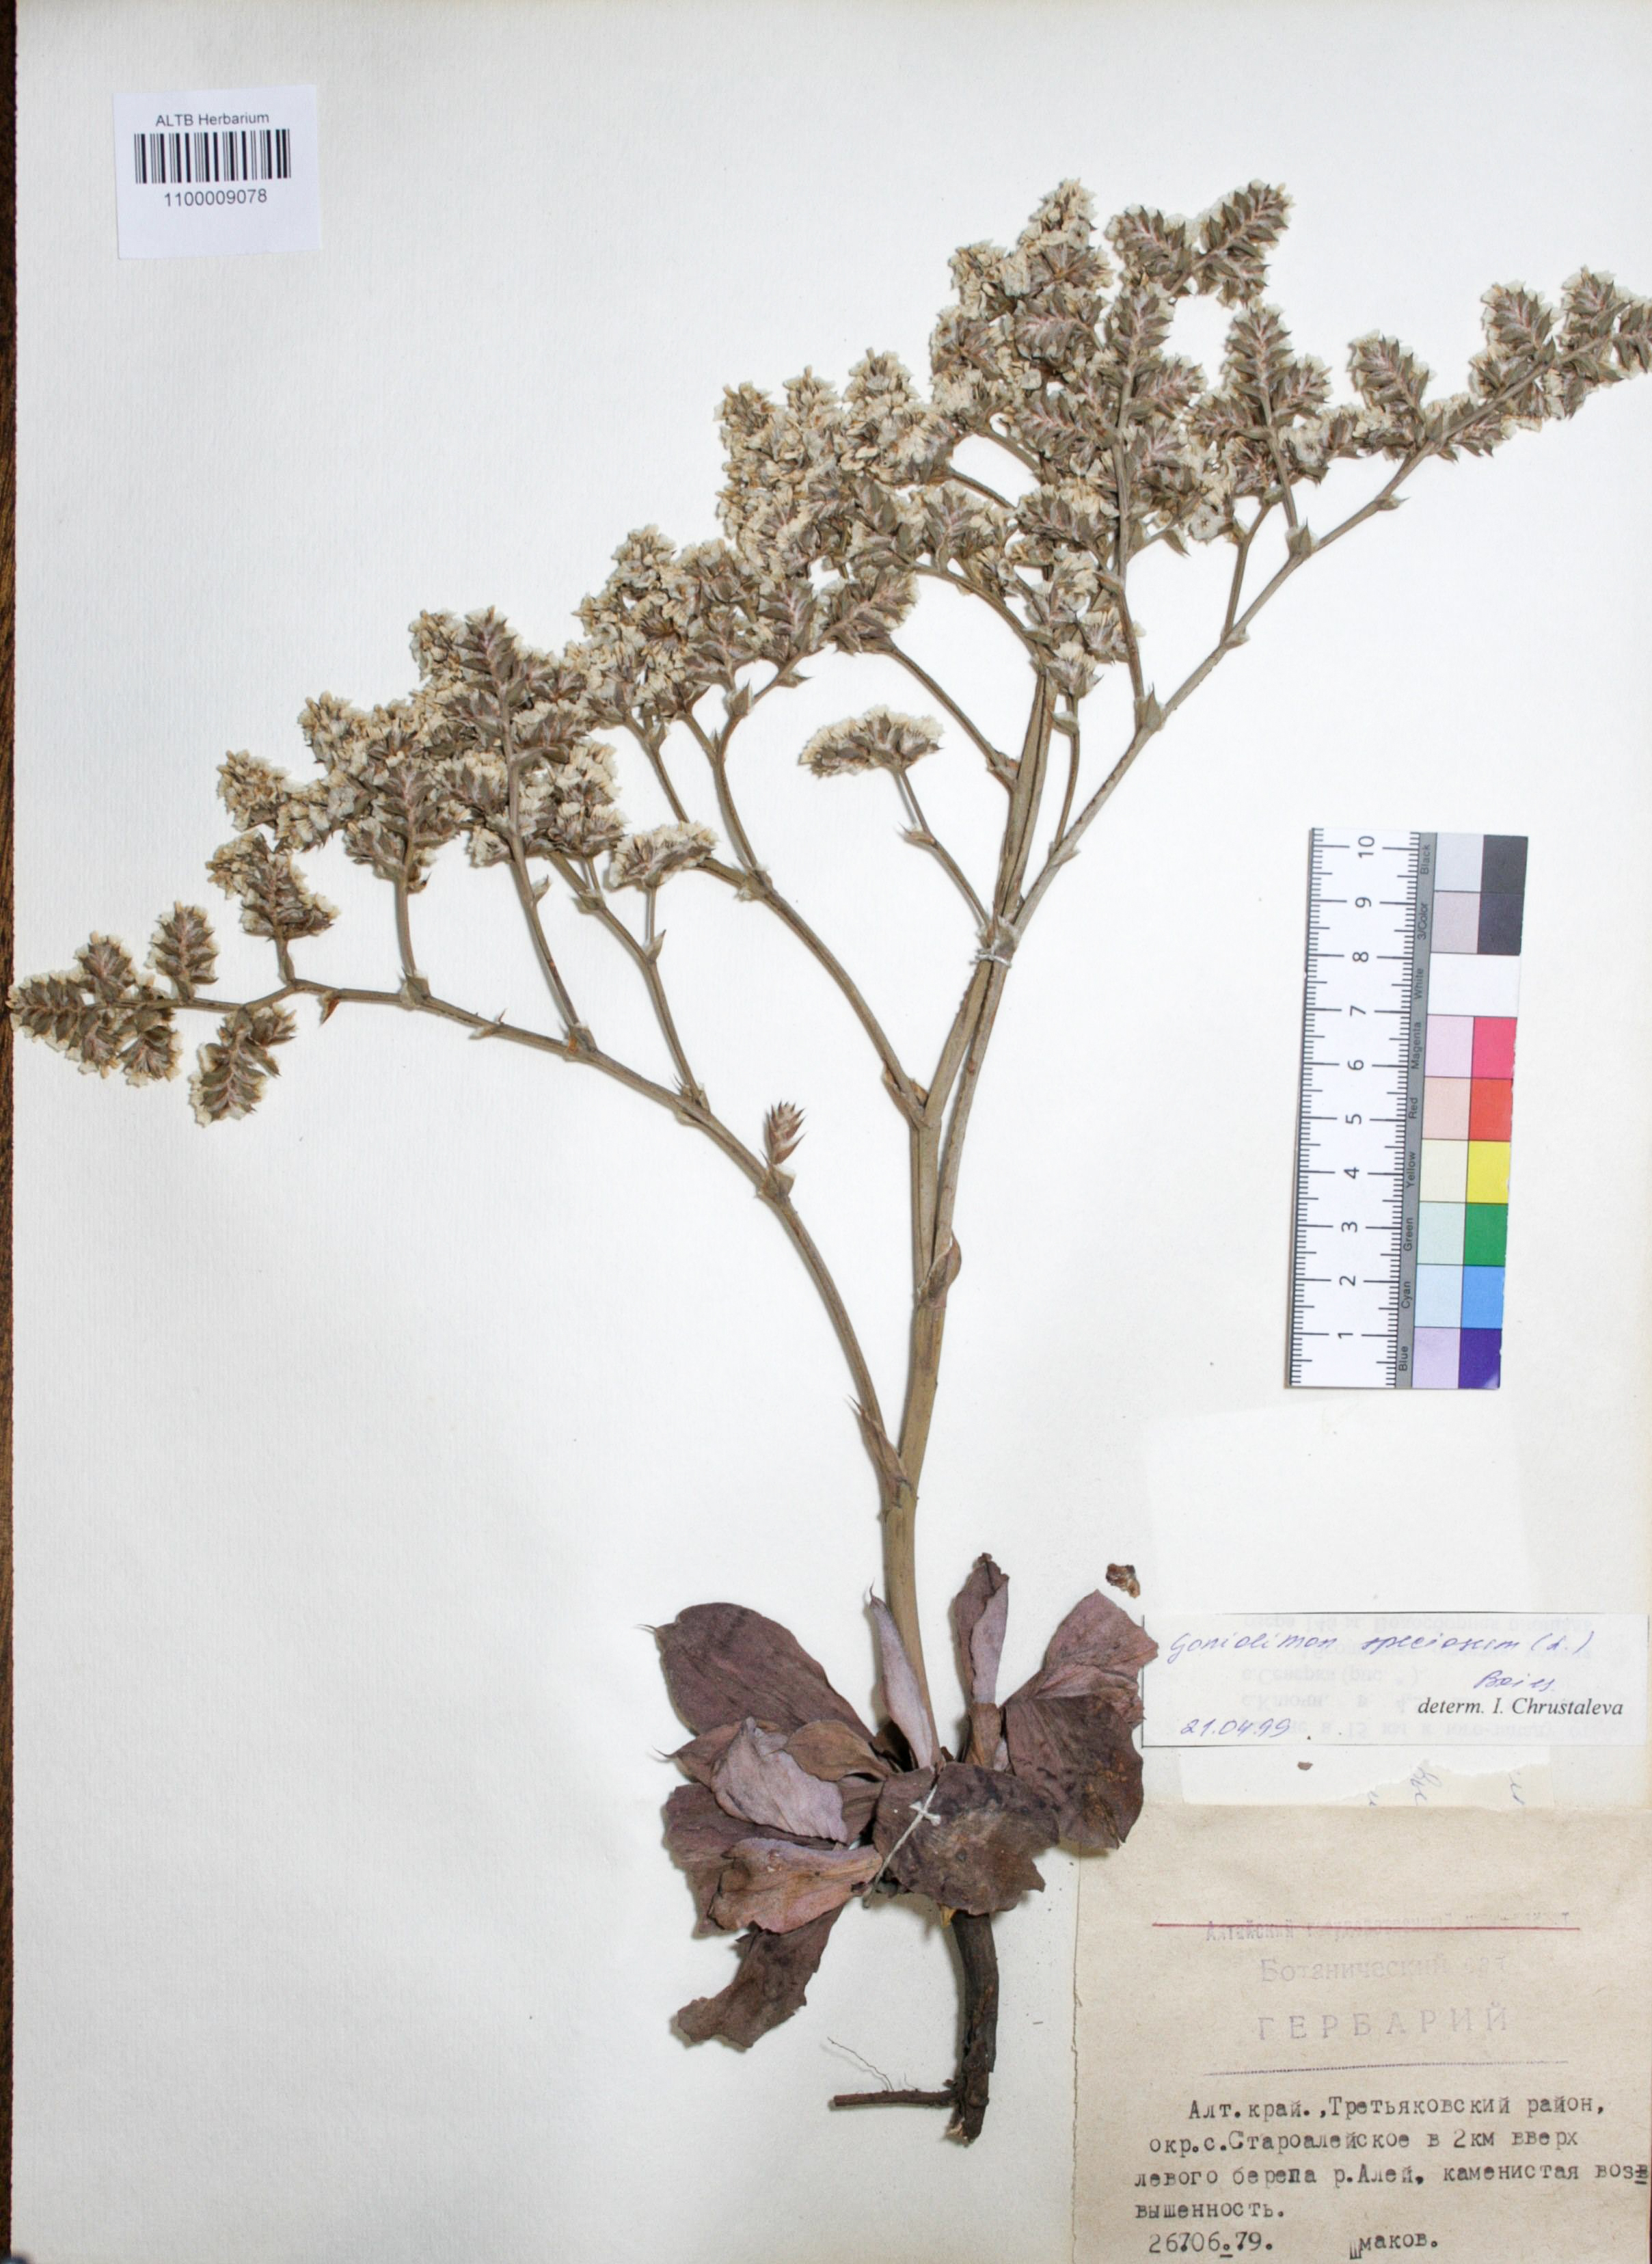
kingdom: Plantae
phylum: Tracheophyta
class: Magnoliopsida
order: Caryophyllales
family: Plumbaginaceae
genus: Goniolimon
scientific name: Goniolimon speciosum
